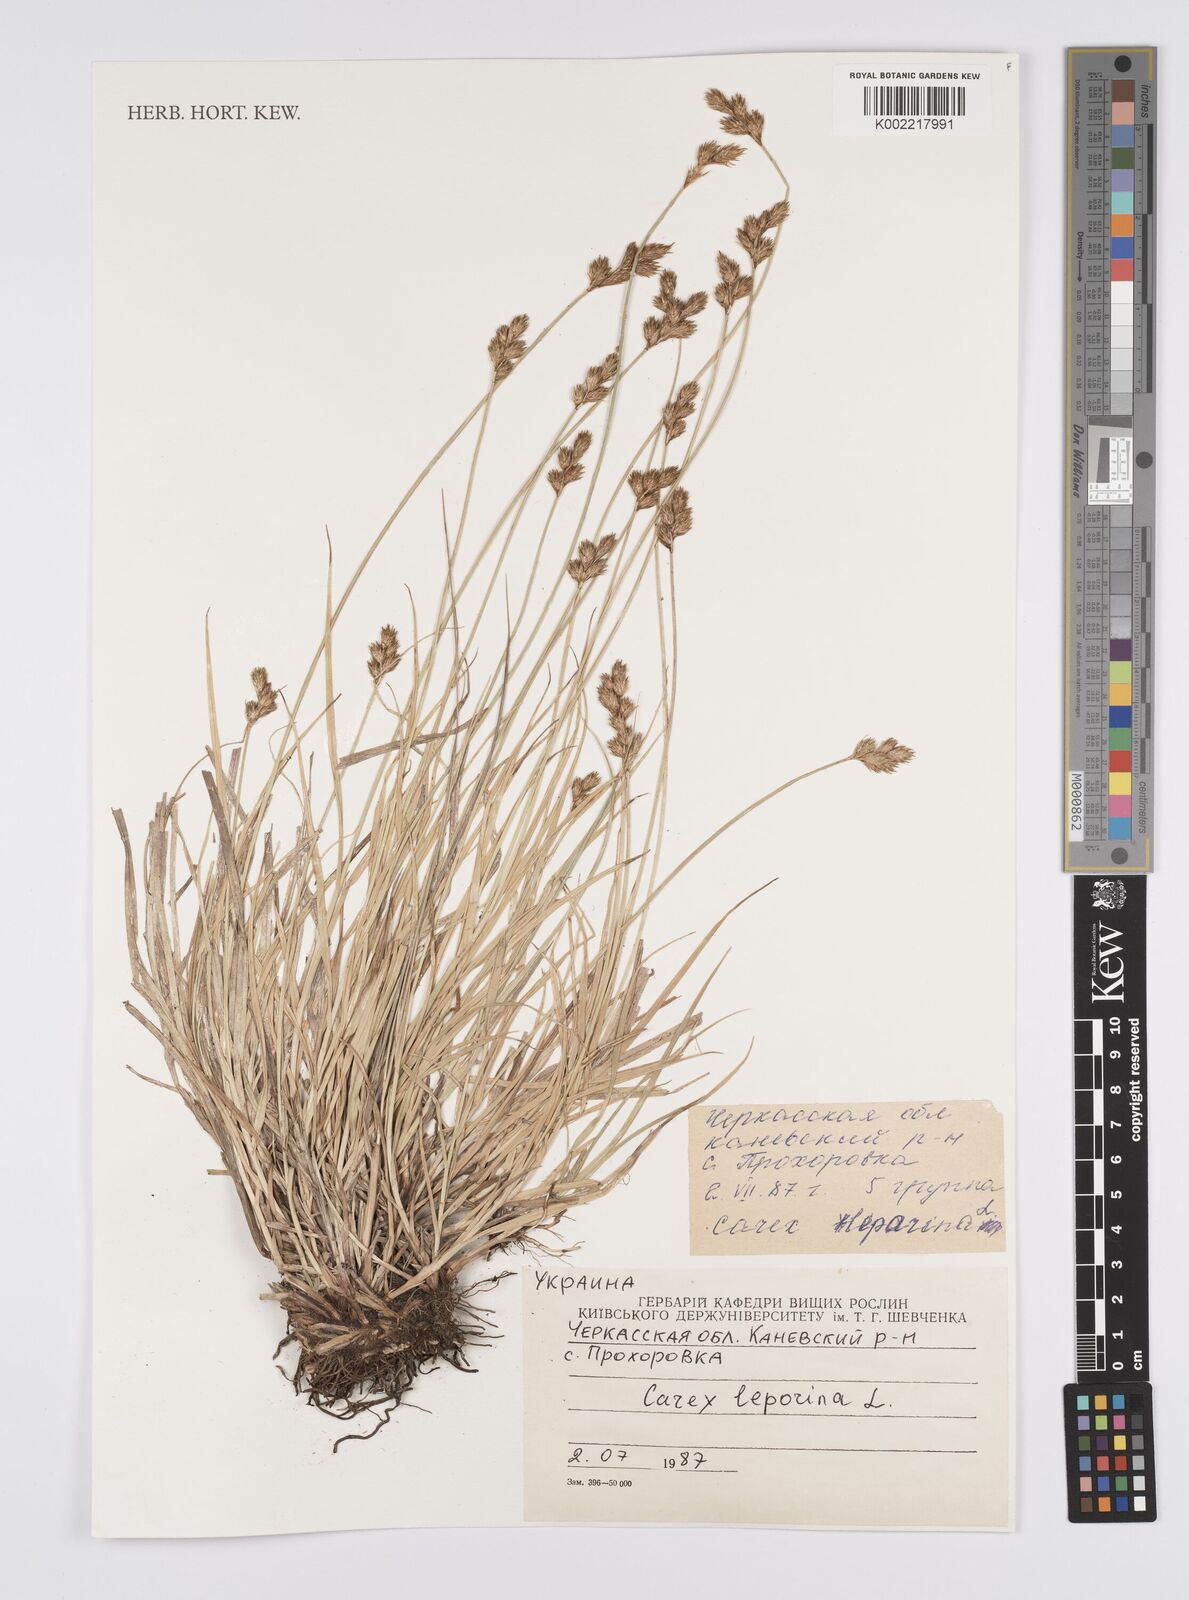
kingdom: Plantae
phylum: Tracheophyta
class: Liliopsida
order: Poales
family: Cyperaceae
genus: Carex
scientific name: Carex leporina
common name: Oval sedge
